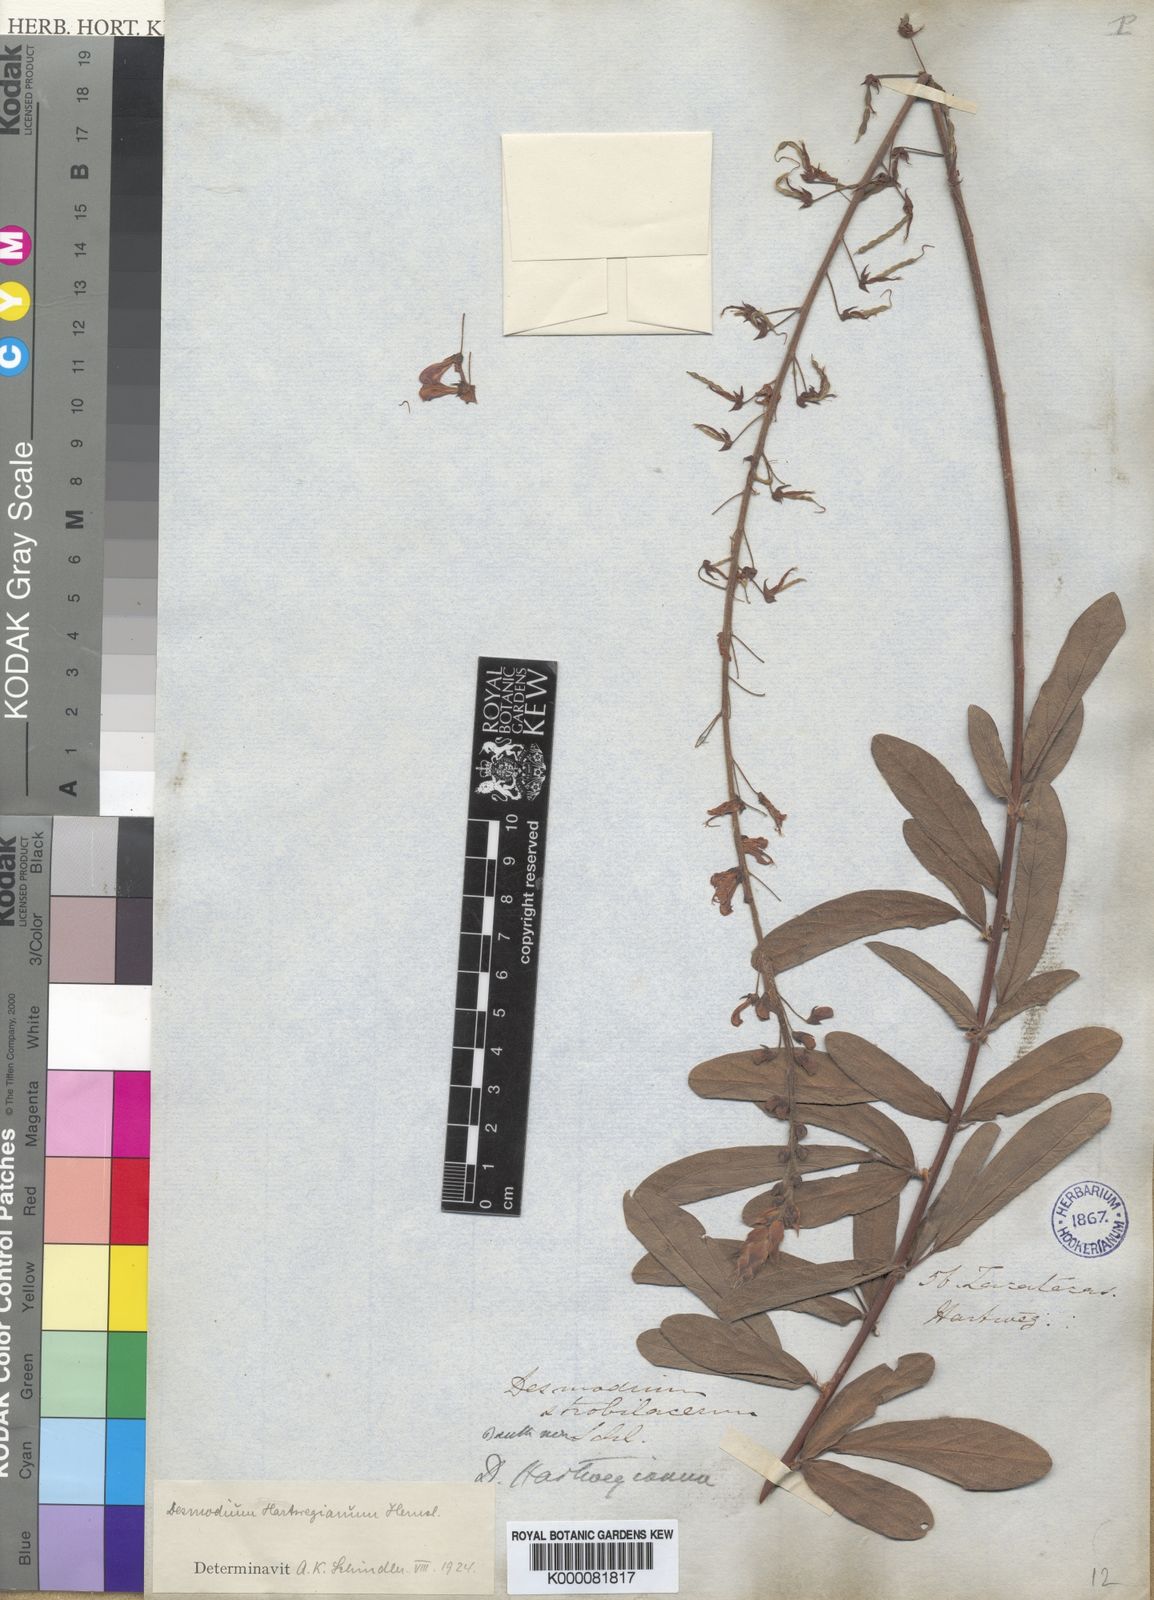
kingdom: Plantae
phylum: Tracheophyta
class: Magnoliopsida
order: Fabales
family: Fabaceae
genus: Desmodium
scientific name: Desmodium hartwegianum
